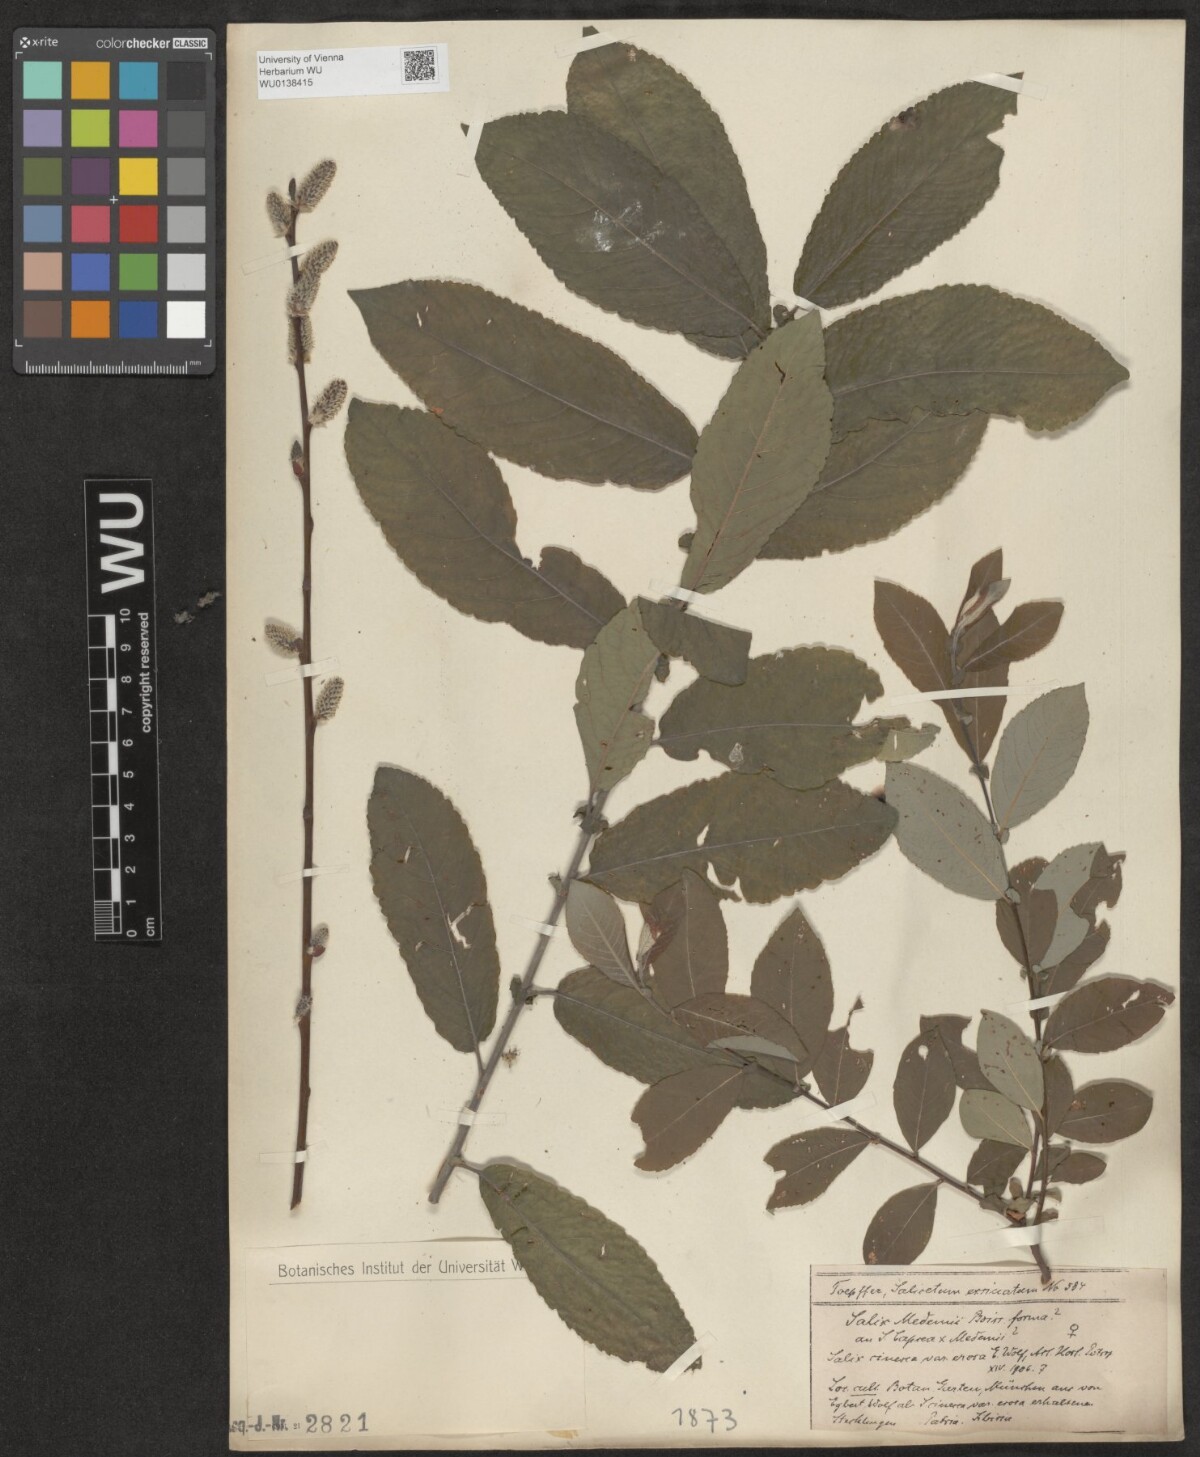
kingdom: Plantae
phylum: Tracheophyta
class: Magnoliopsida
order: Malpighiales
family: Salicaceae
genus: Salix
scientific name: Salix aegyptiaca
